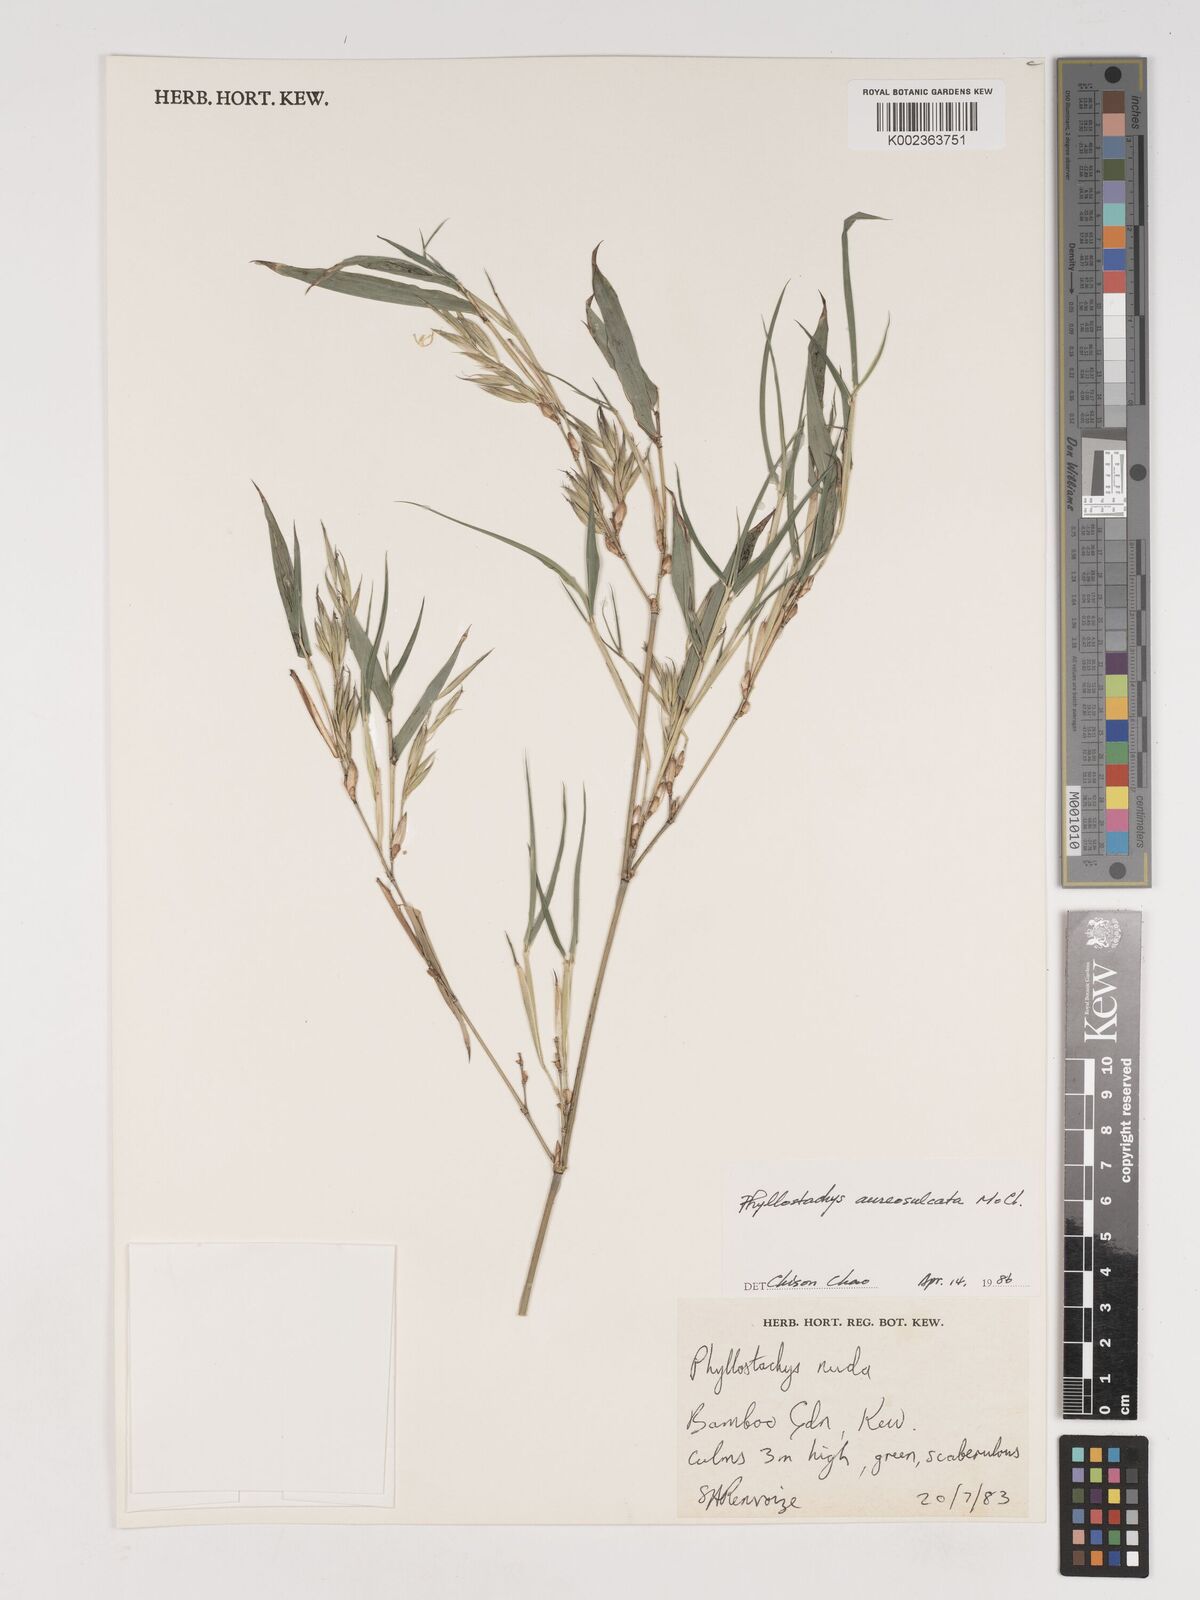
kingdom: Plantae
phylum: Tracheophyta
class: Liliopsida
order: Poales
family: Poaceae
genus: Phyllostachys
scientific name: Phyllostachys aureosulcata
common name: Yellow groove bamboo
